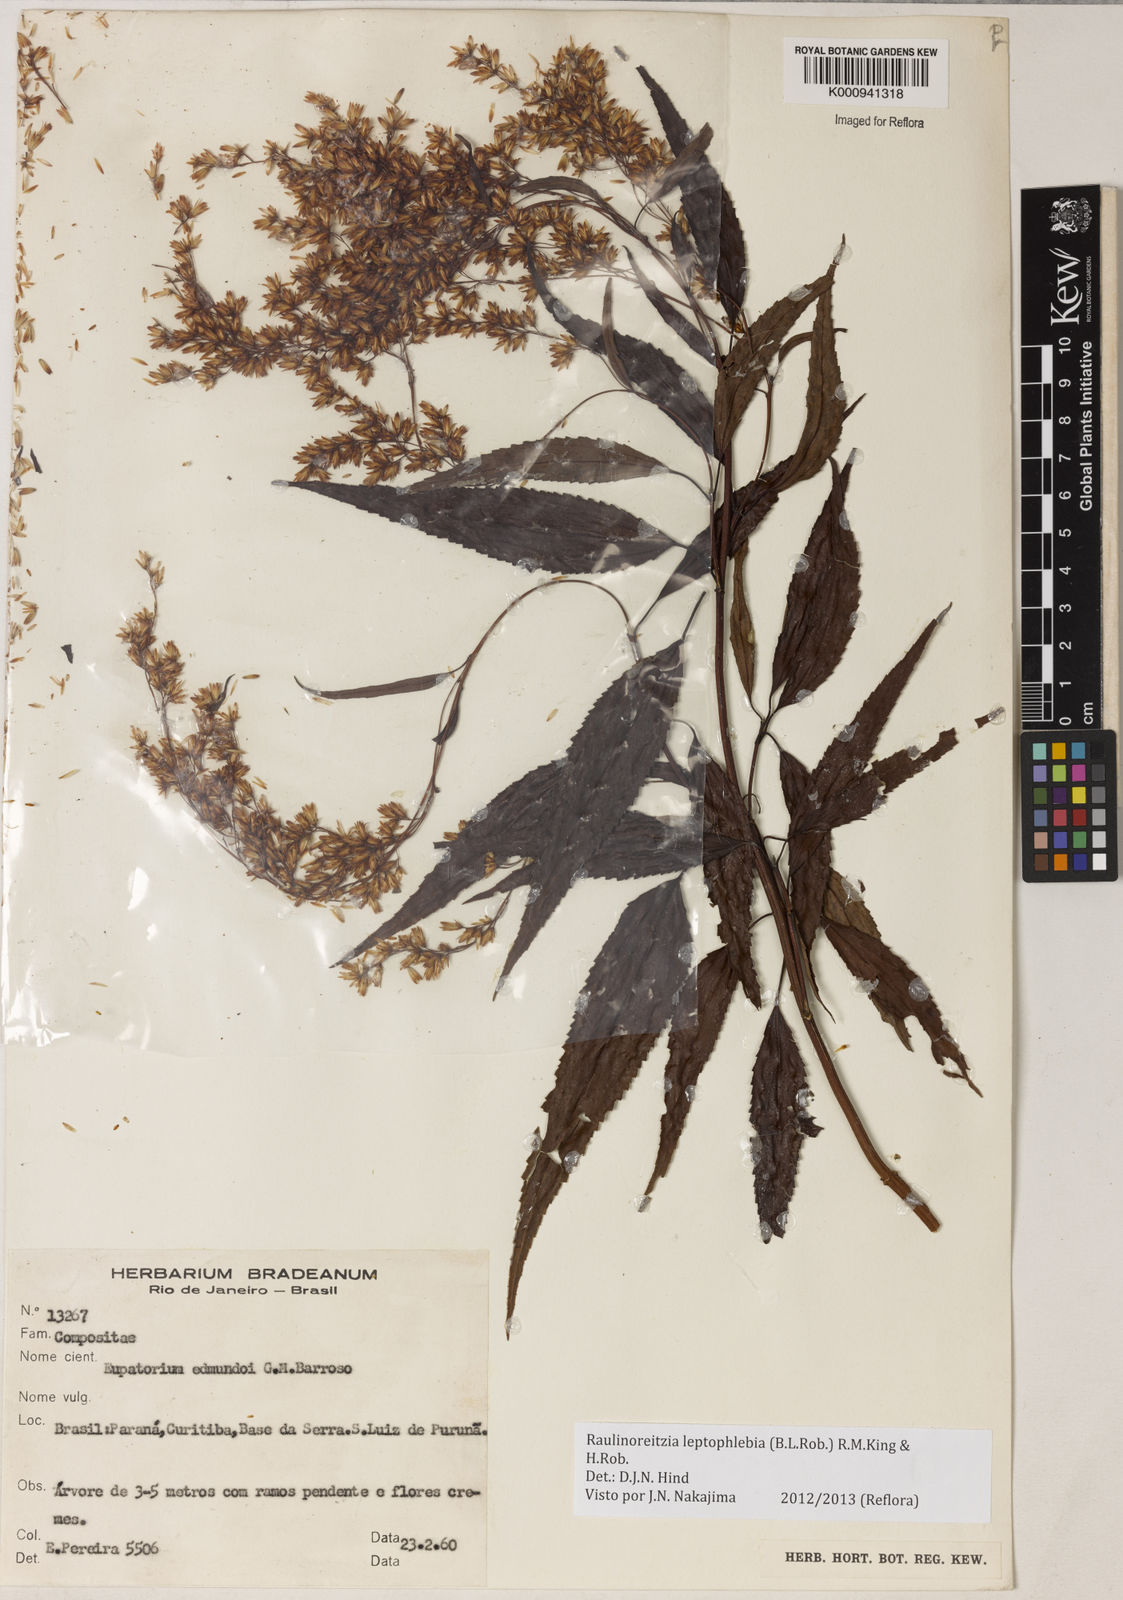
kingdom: Plantae
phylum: Tracheophyta
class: Magnoliopsida
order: Asterales
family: Asteraceae
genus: Raulinoreitzia
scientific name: Raulinoreitzia leptophlebia
